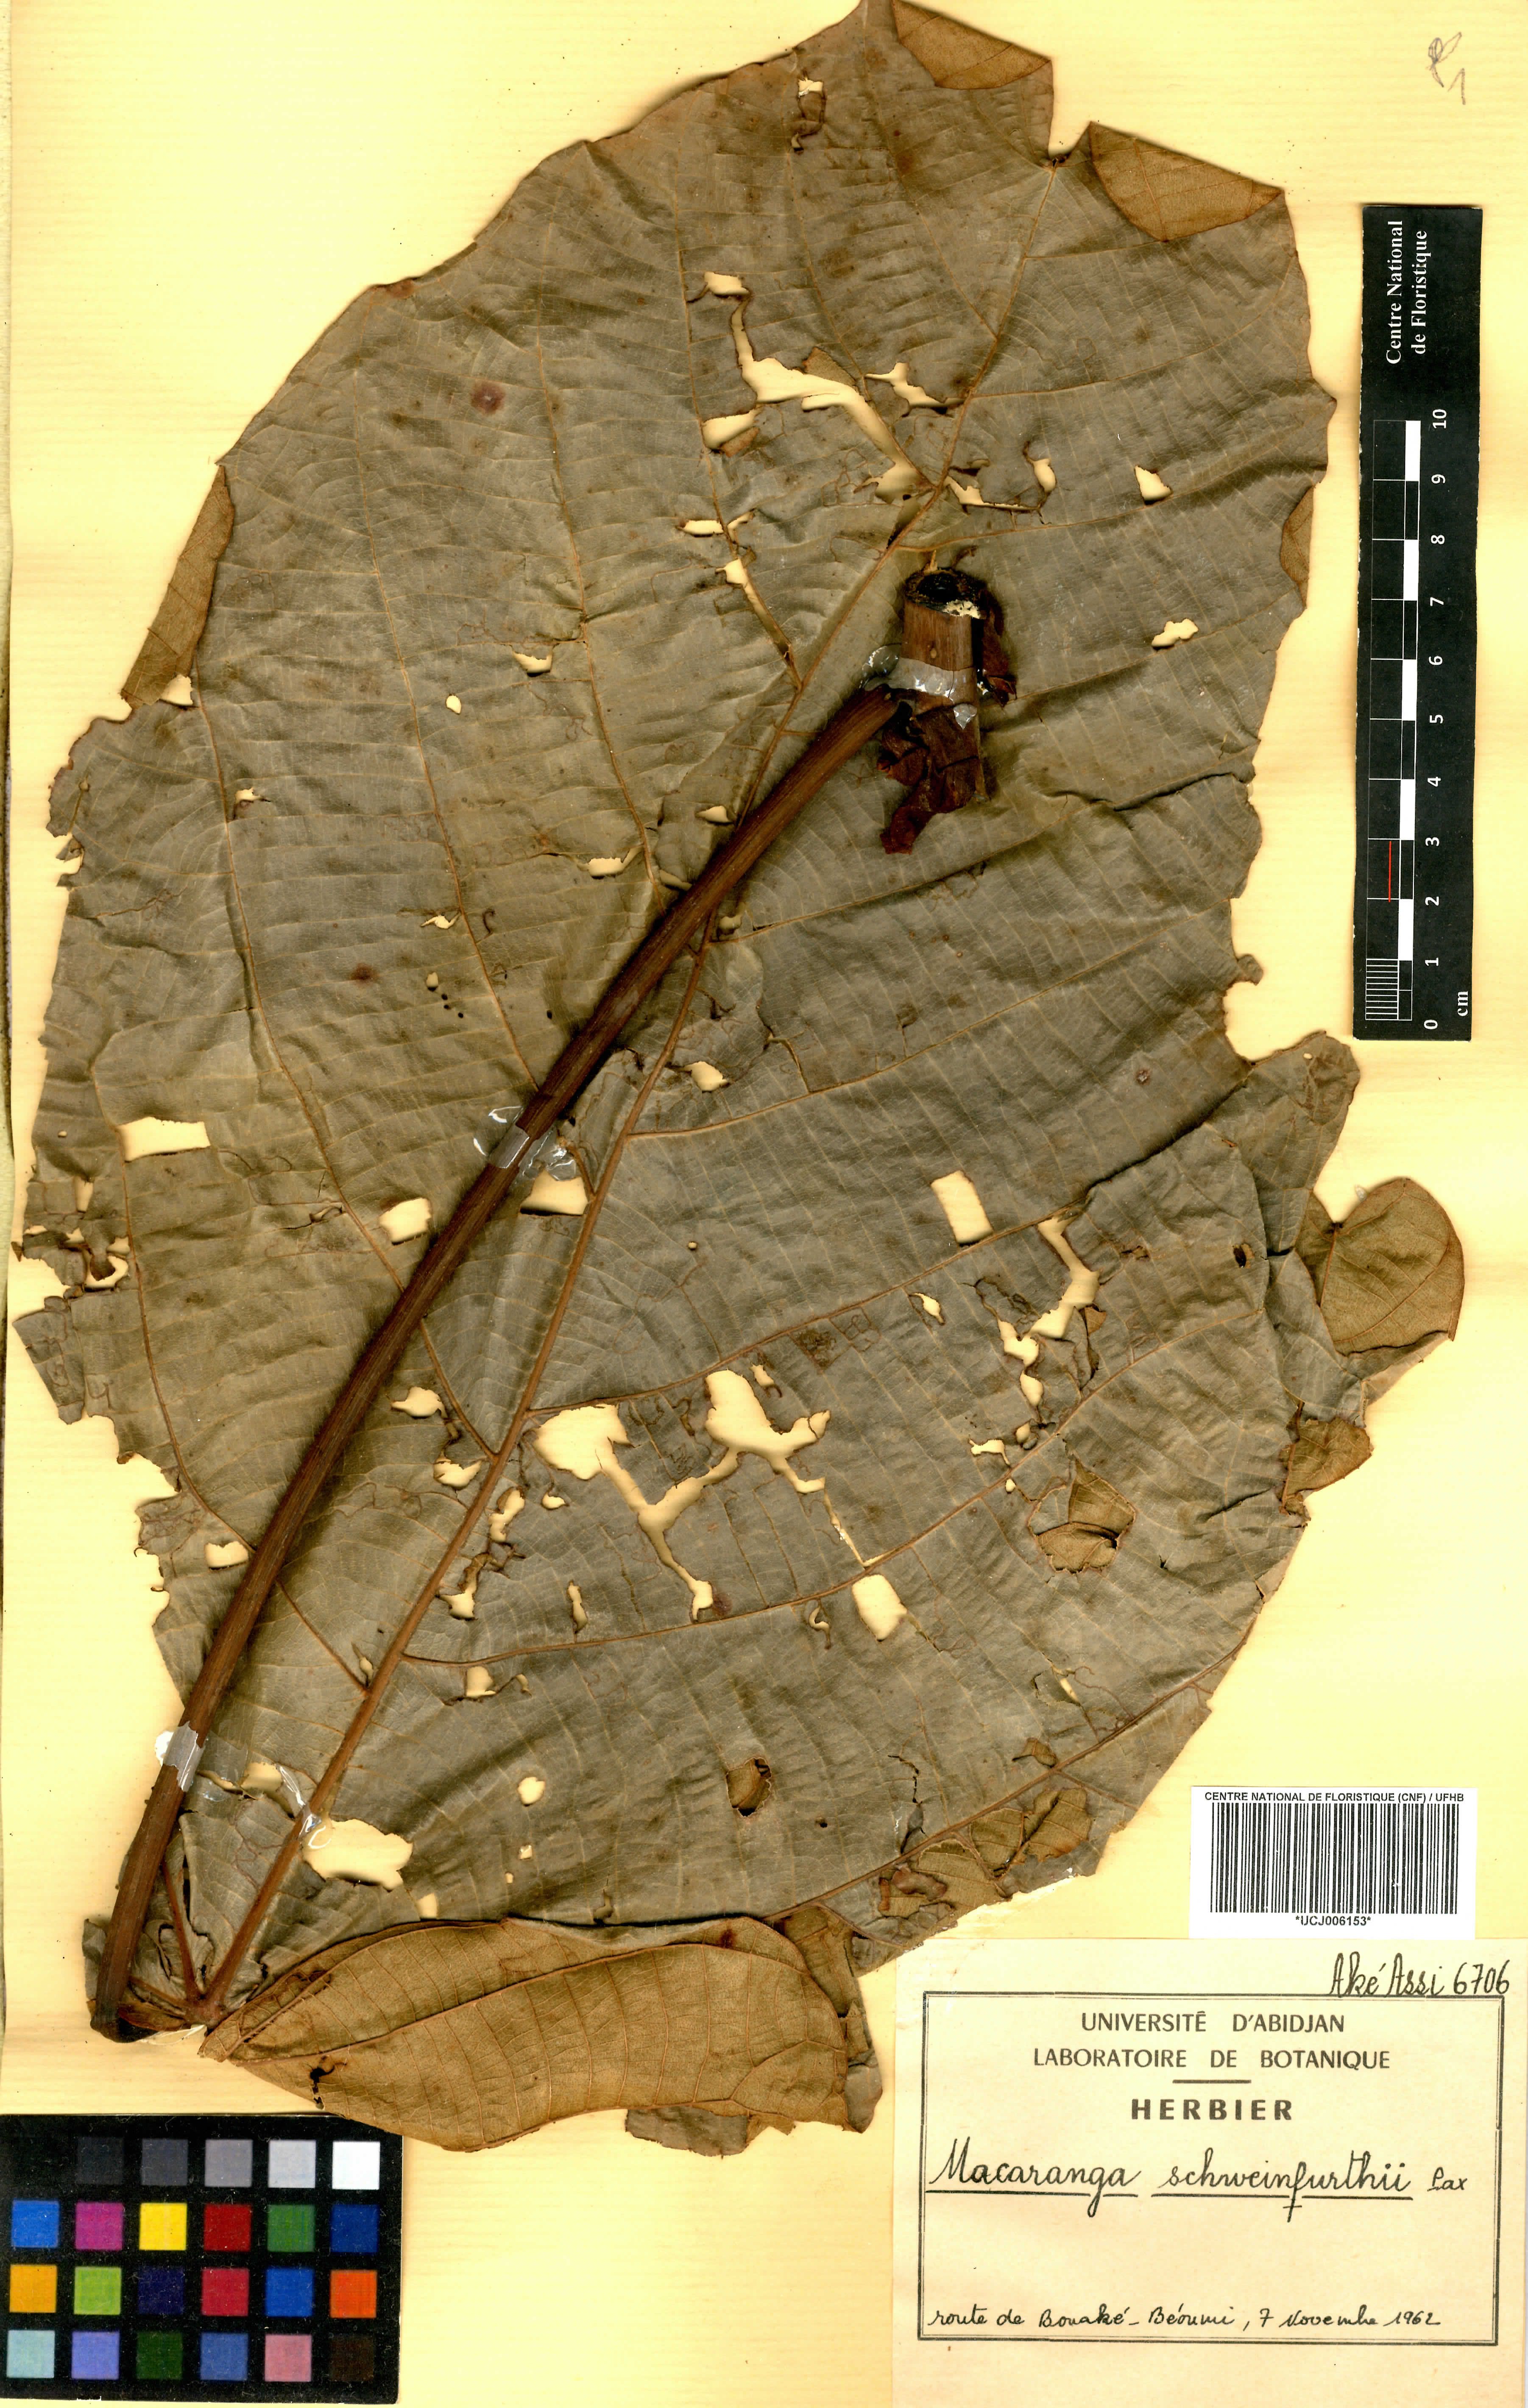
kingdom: Plantae
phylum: Tracheophyta
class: Magnoliopsida
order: Malpighiales
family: Euphorbiaceae
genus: Macaranga
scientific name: Macaranga schweinfurthii
